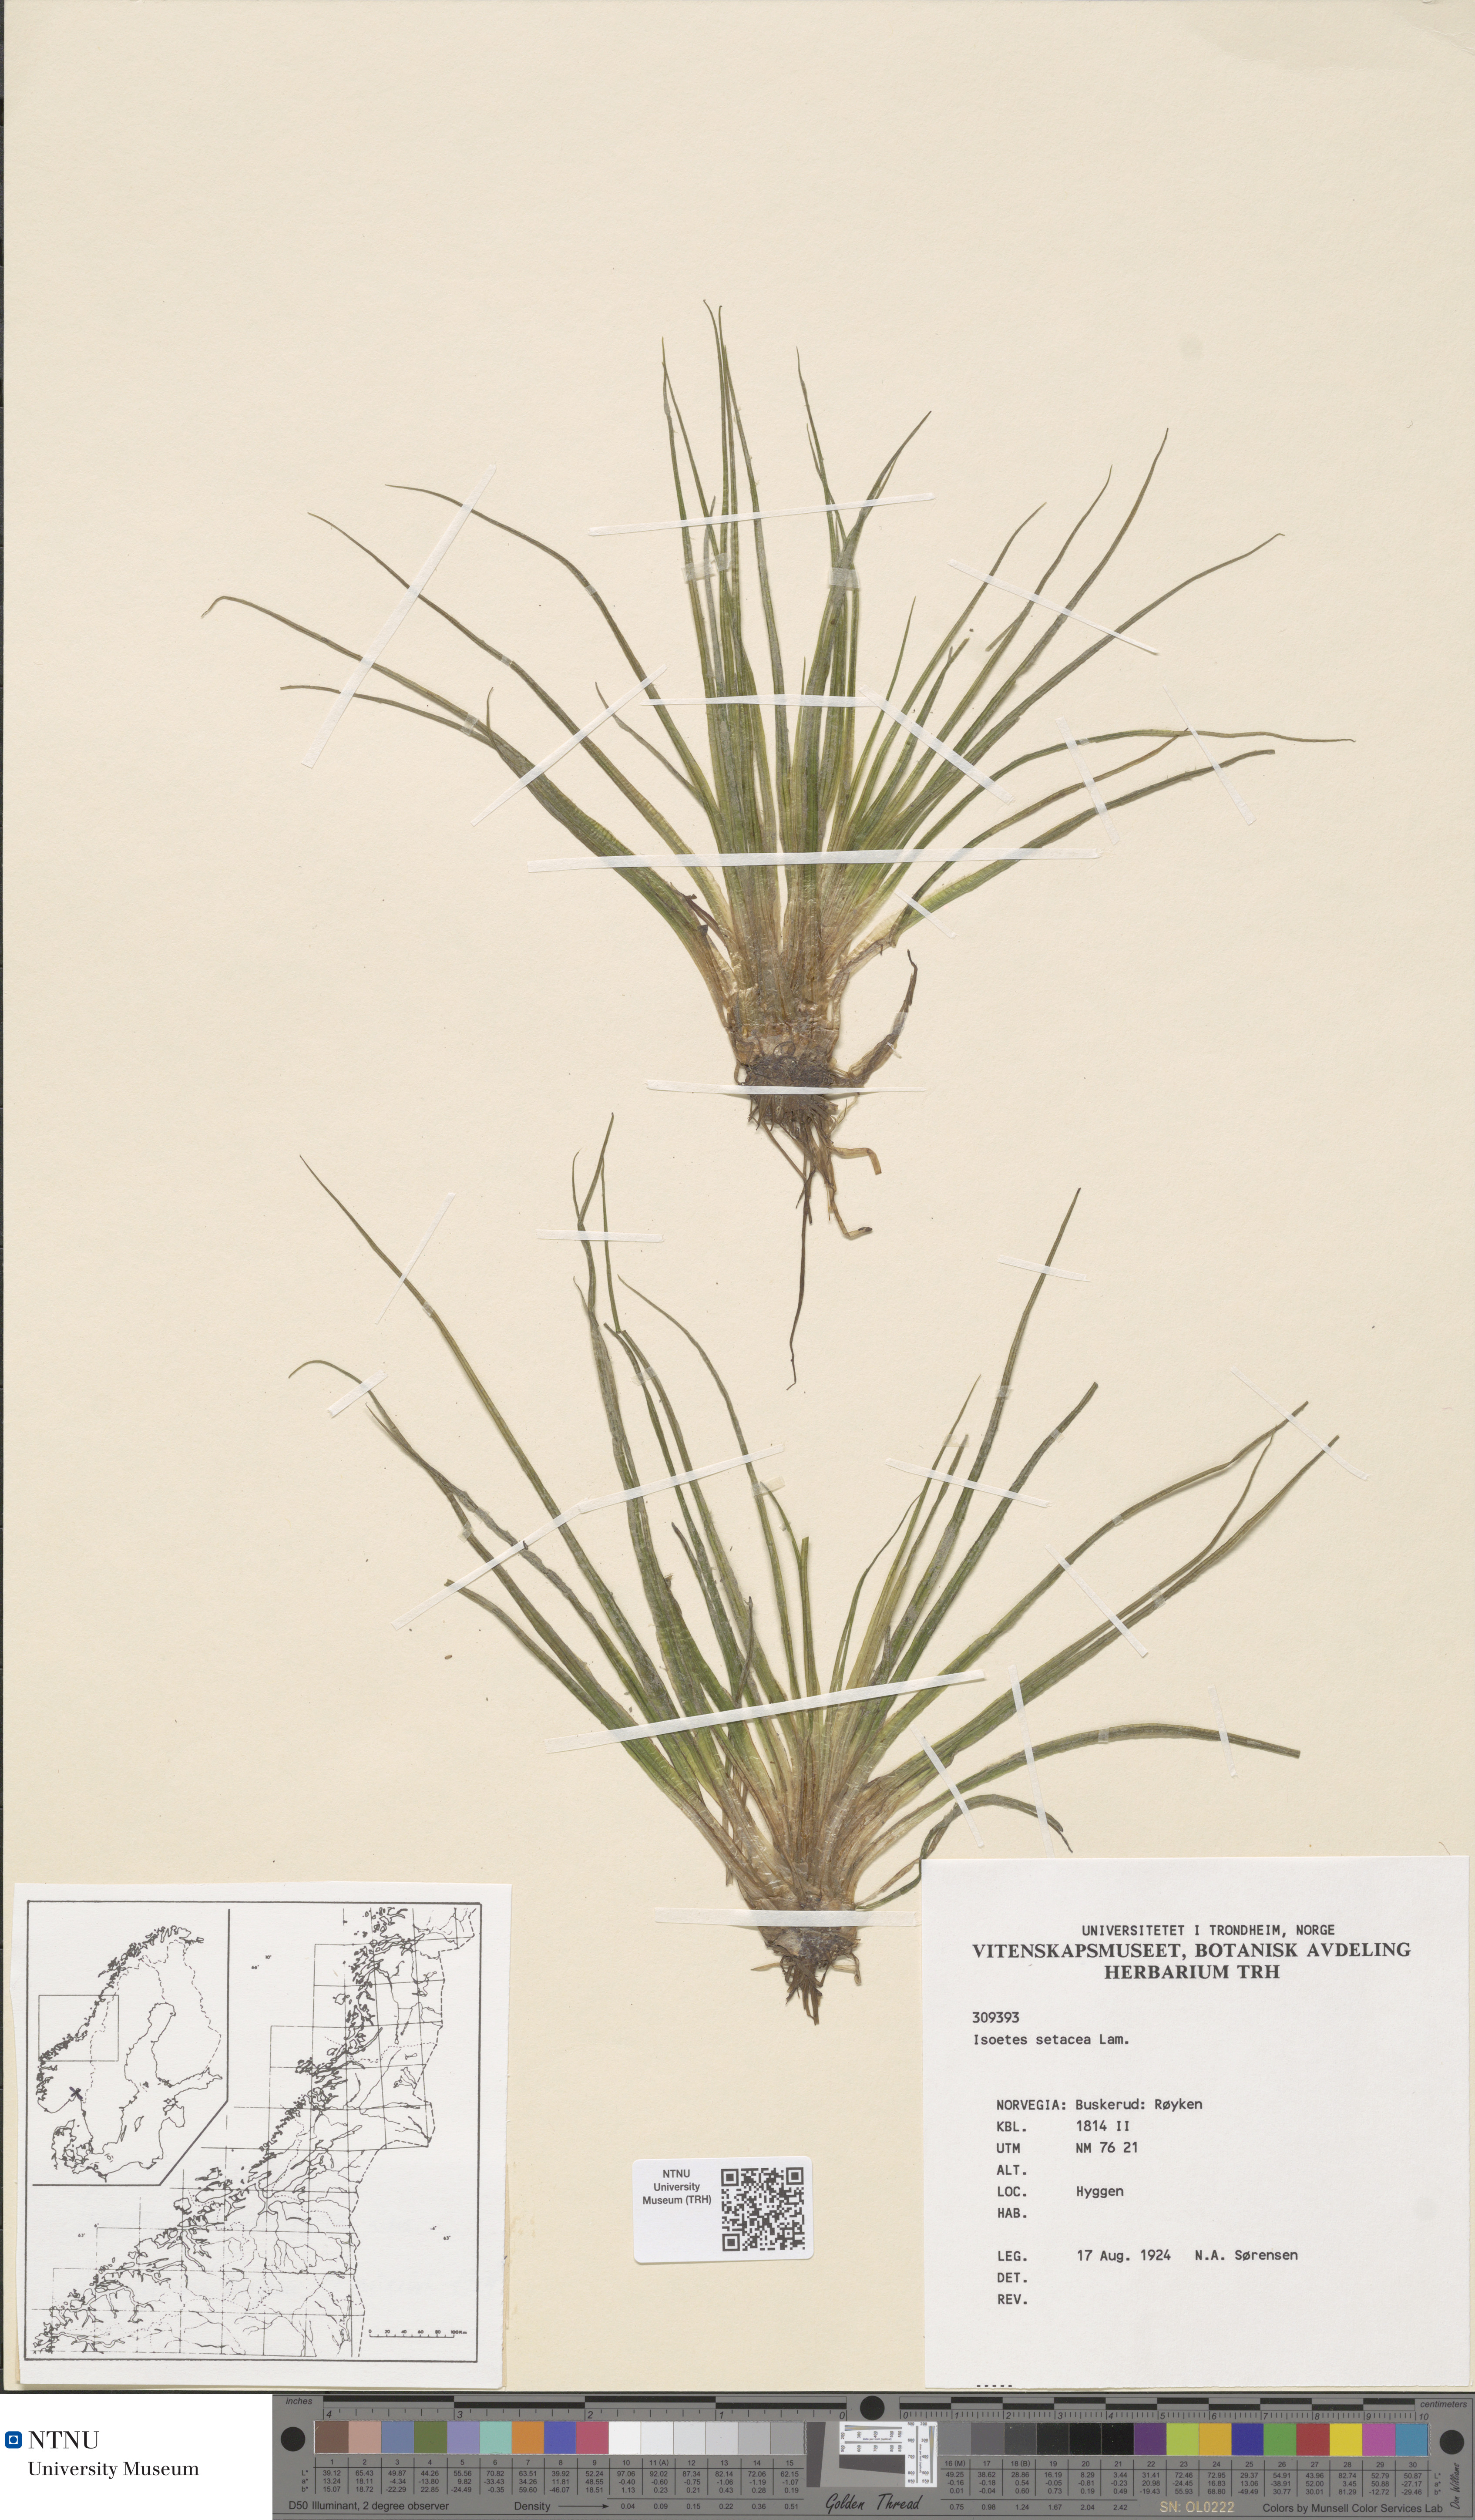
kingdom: Plantae
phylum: Tracheophyta
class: Lycopodiopsida
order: Isoetales
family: Isoetaceae
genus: Isoetes
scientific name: Isoetes echinospora
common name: Spring quillwort
